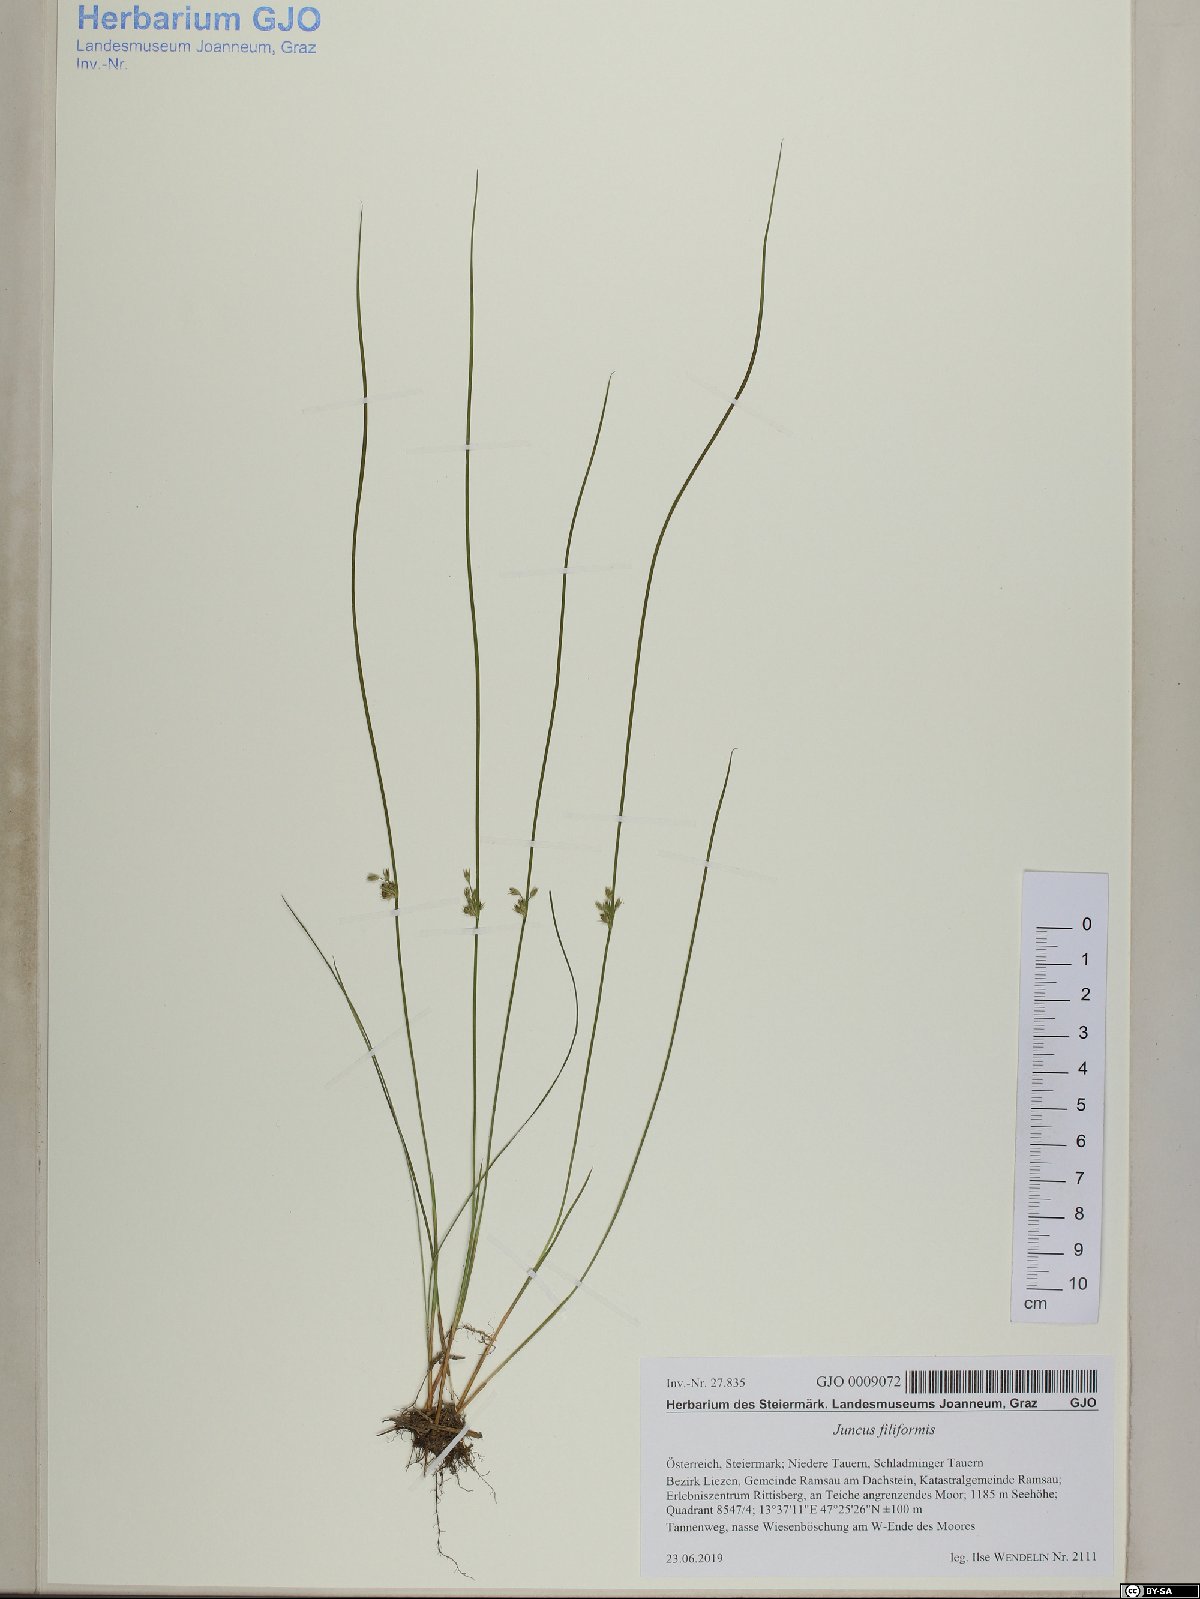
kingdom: Plantae
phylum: Tracheophyta
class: Liliopsida
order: Poales
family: Poaceae
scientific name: Poaceae
